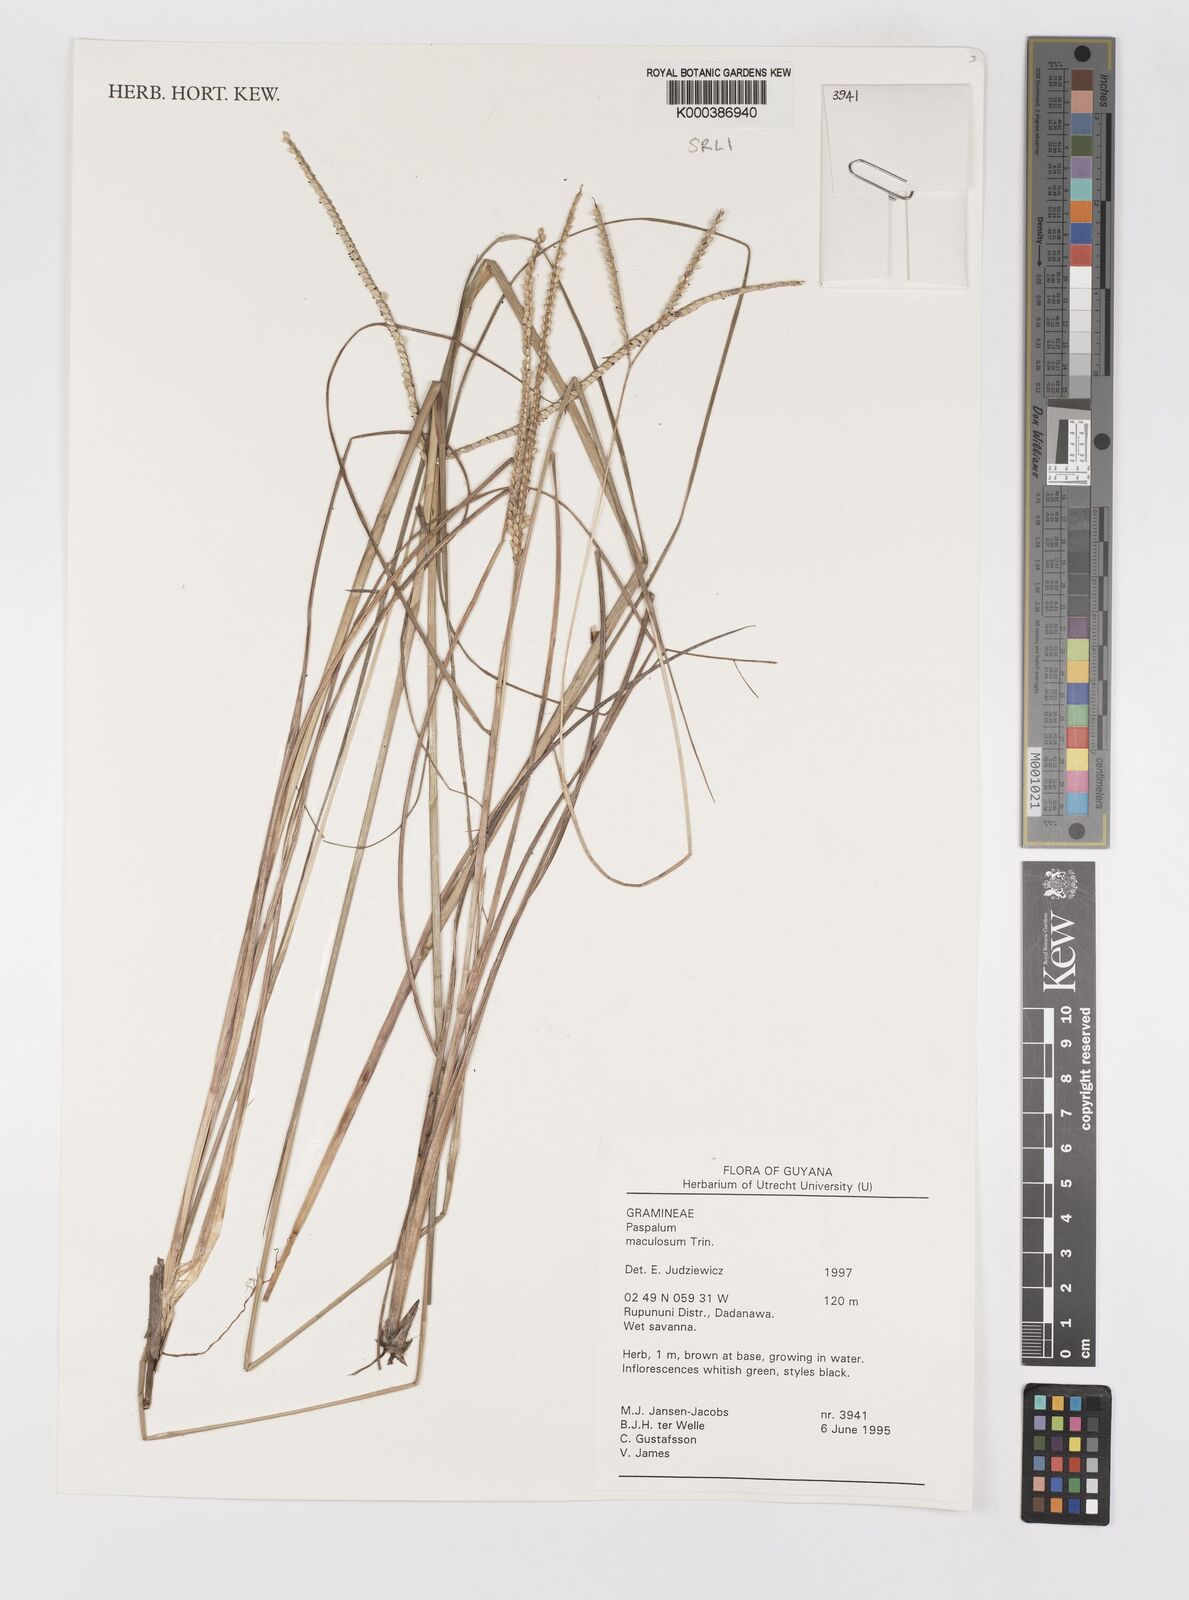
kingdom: Plantae
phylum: Tracheophyta
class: Liliopsida
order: Poales
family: Poaceae
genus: Paspalum
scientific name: Paspalum maculosum
